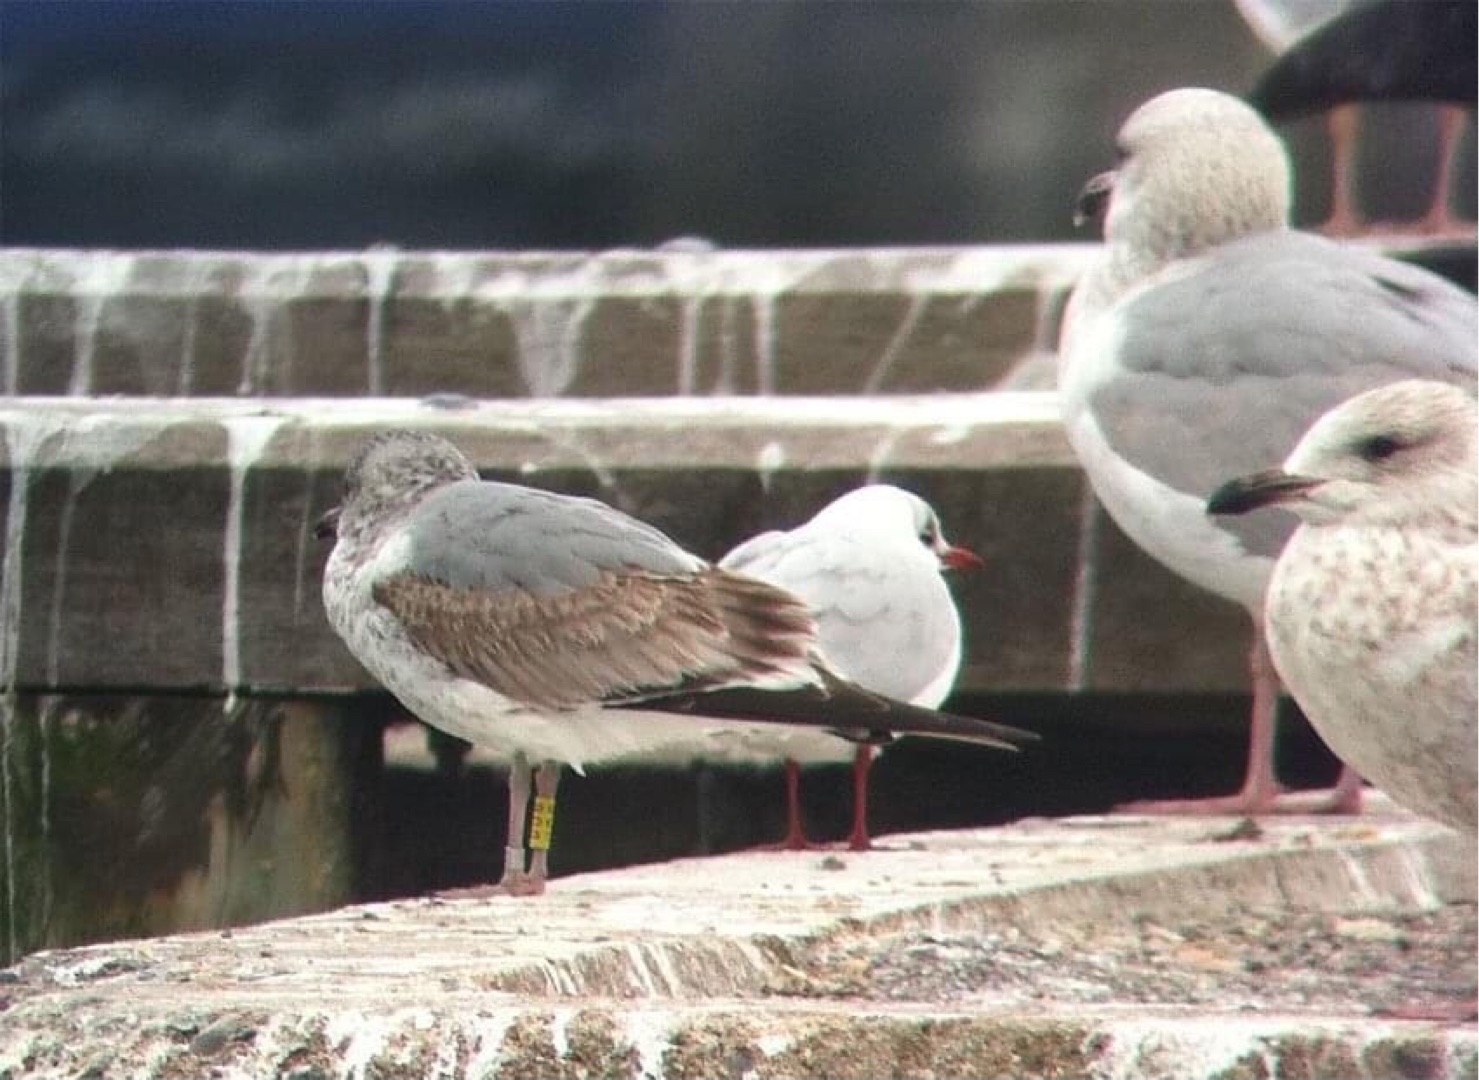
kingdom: Animalia
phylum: Chordata
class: Aves
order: Charadriiformes
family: Laridae
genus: Larus
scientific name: Larus canus
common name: Stormmåge
